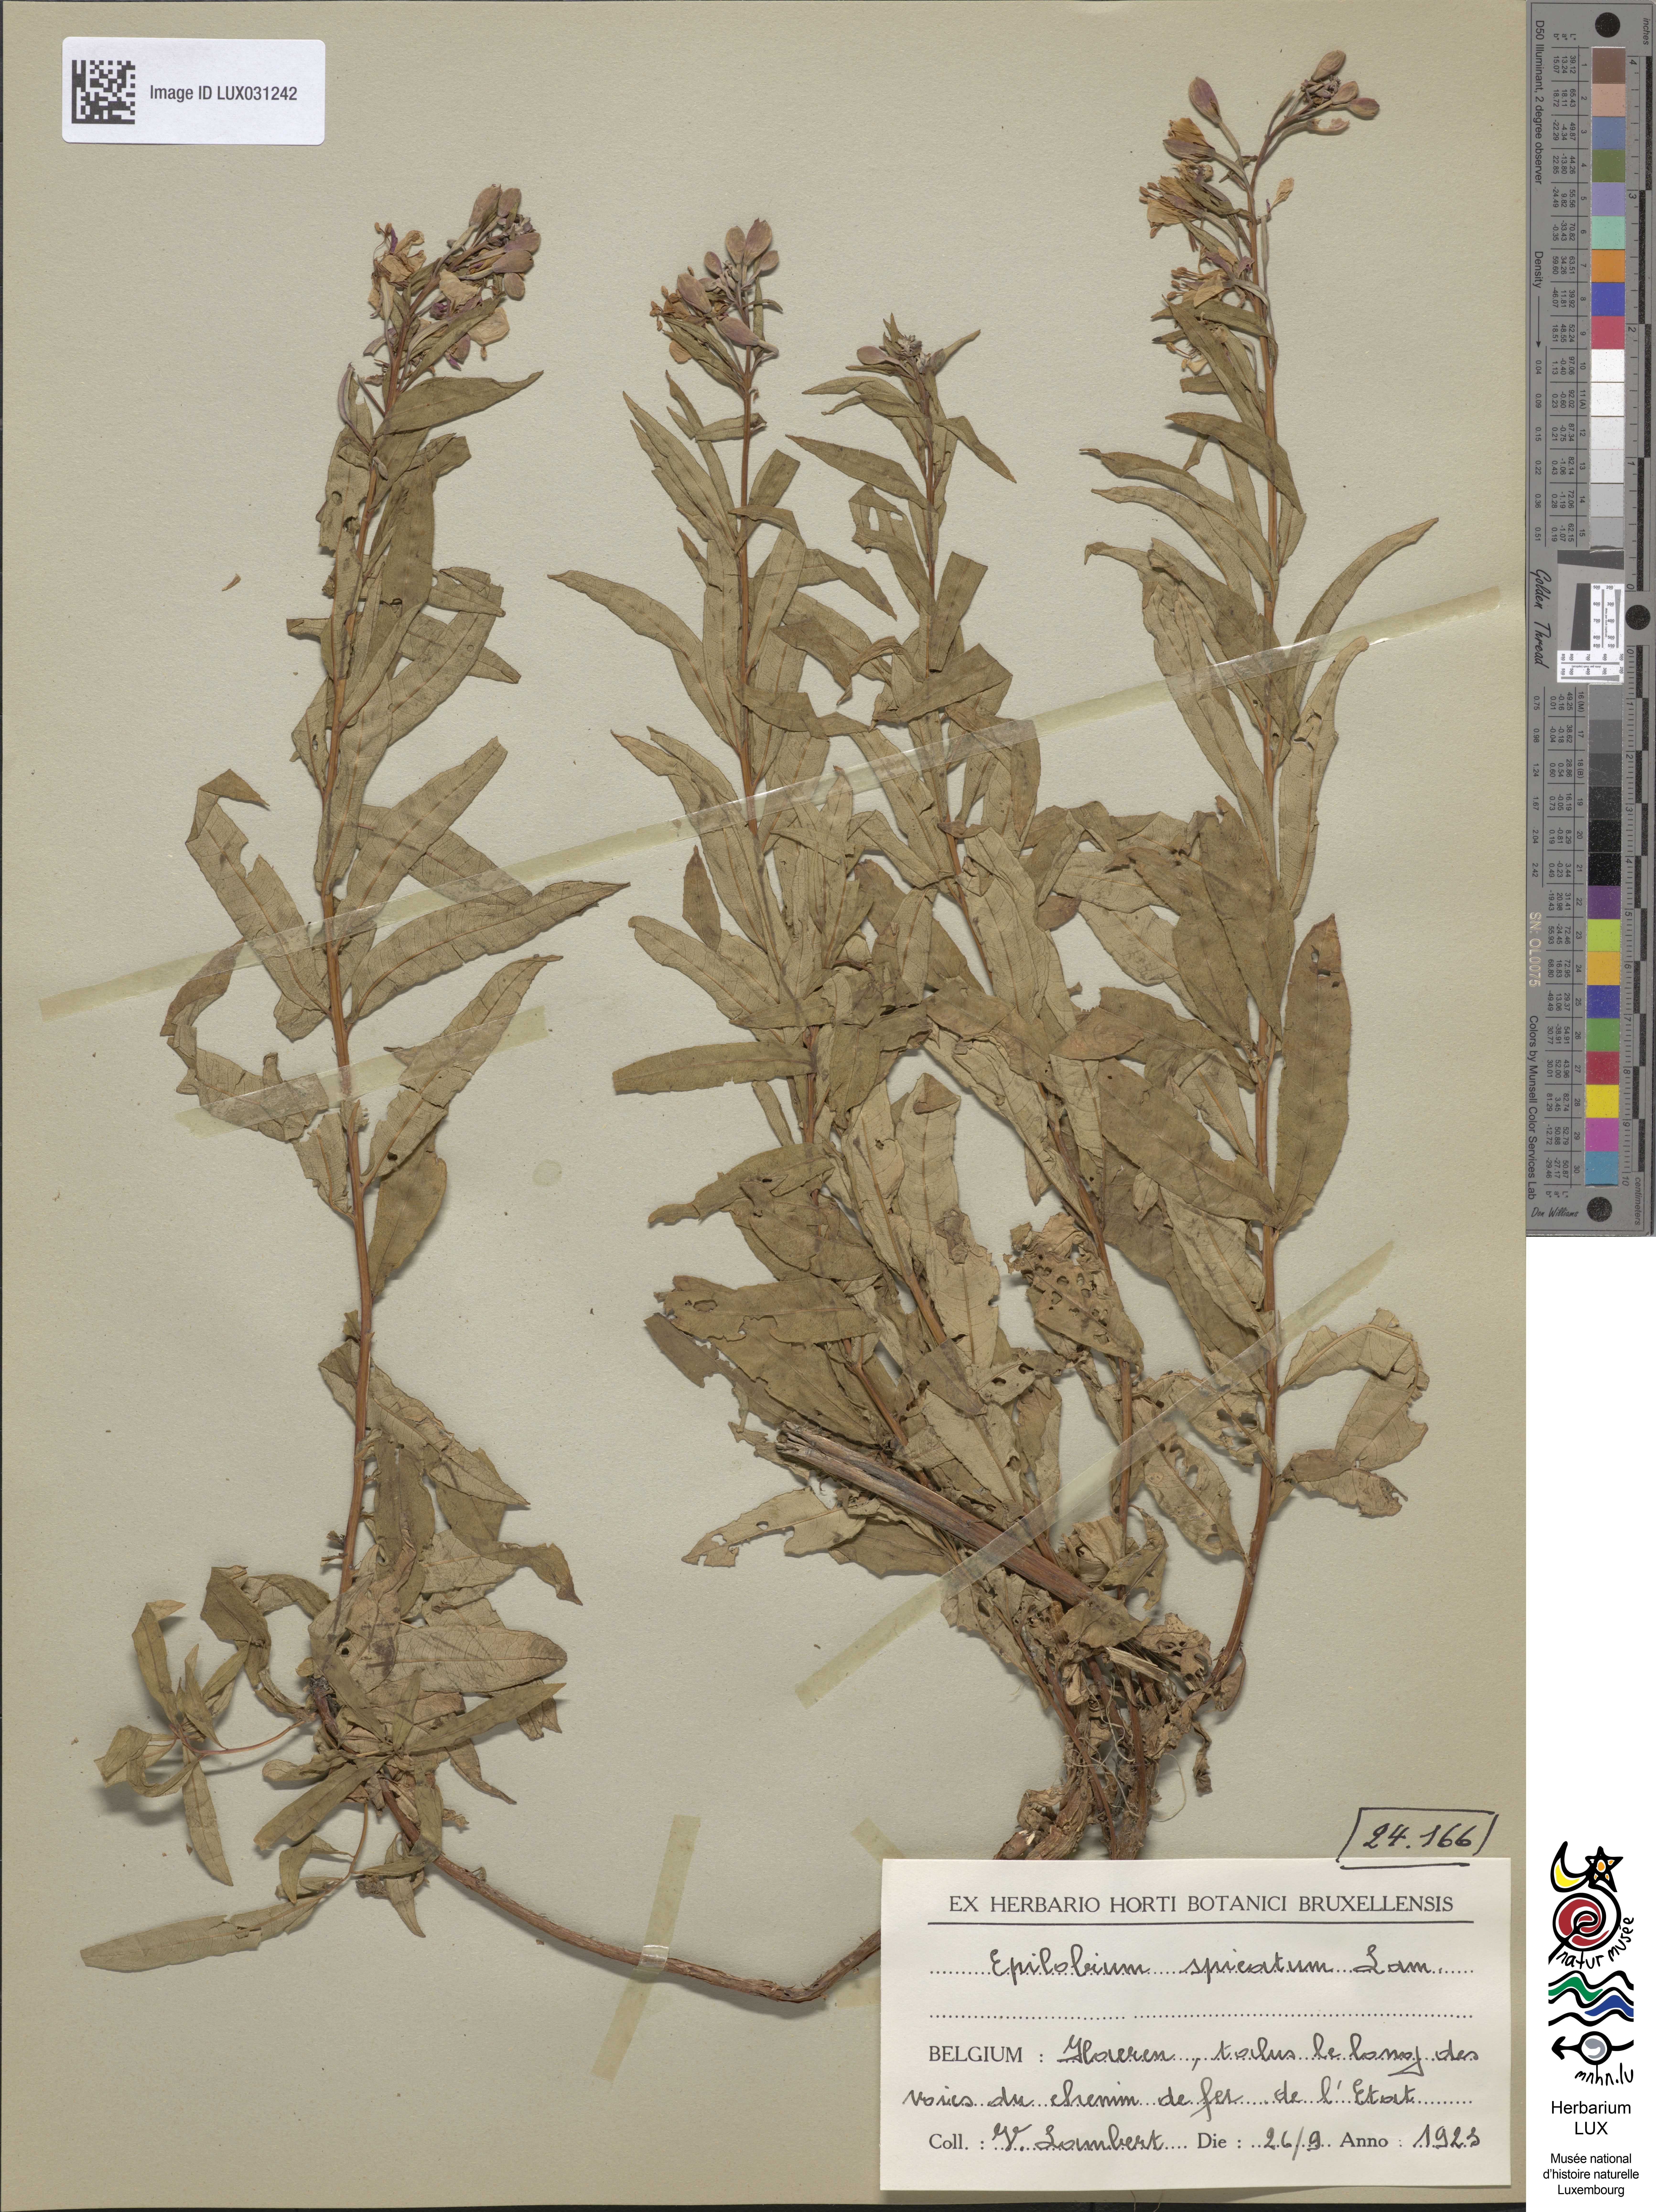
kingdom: Plantae
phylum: Tracheophyta
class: Magnoliopsida
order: Myrtales
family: Onagraceae
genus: Chamaenerion
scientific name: Chamaenerion angustifolium
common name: Fireweed
